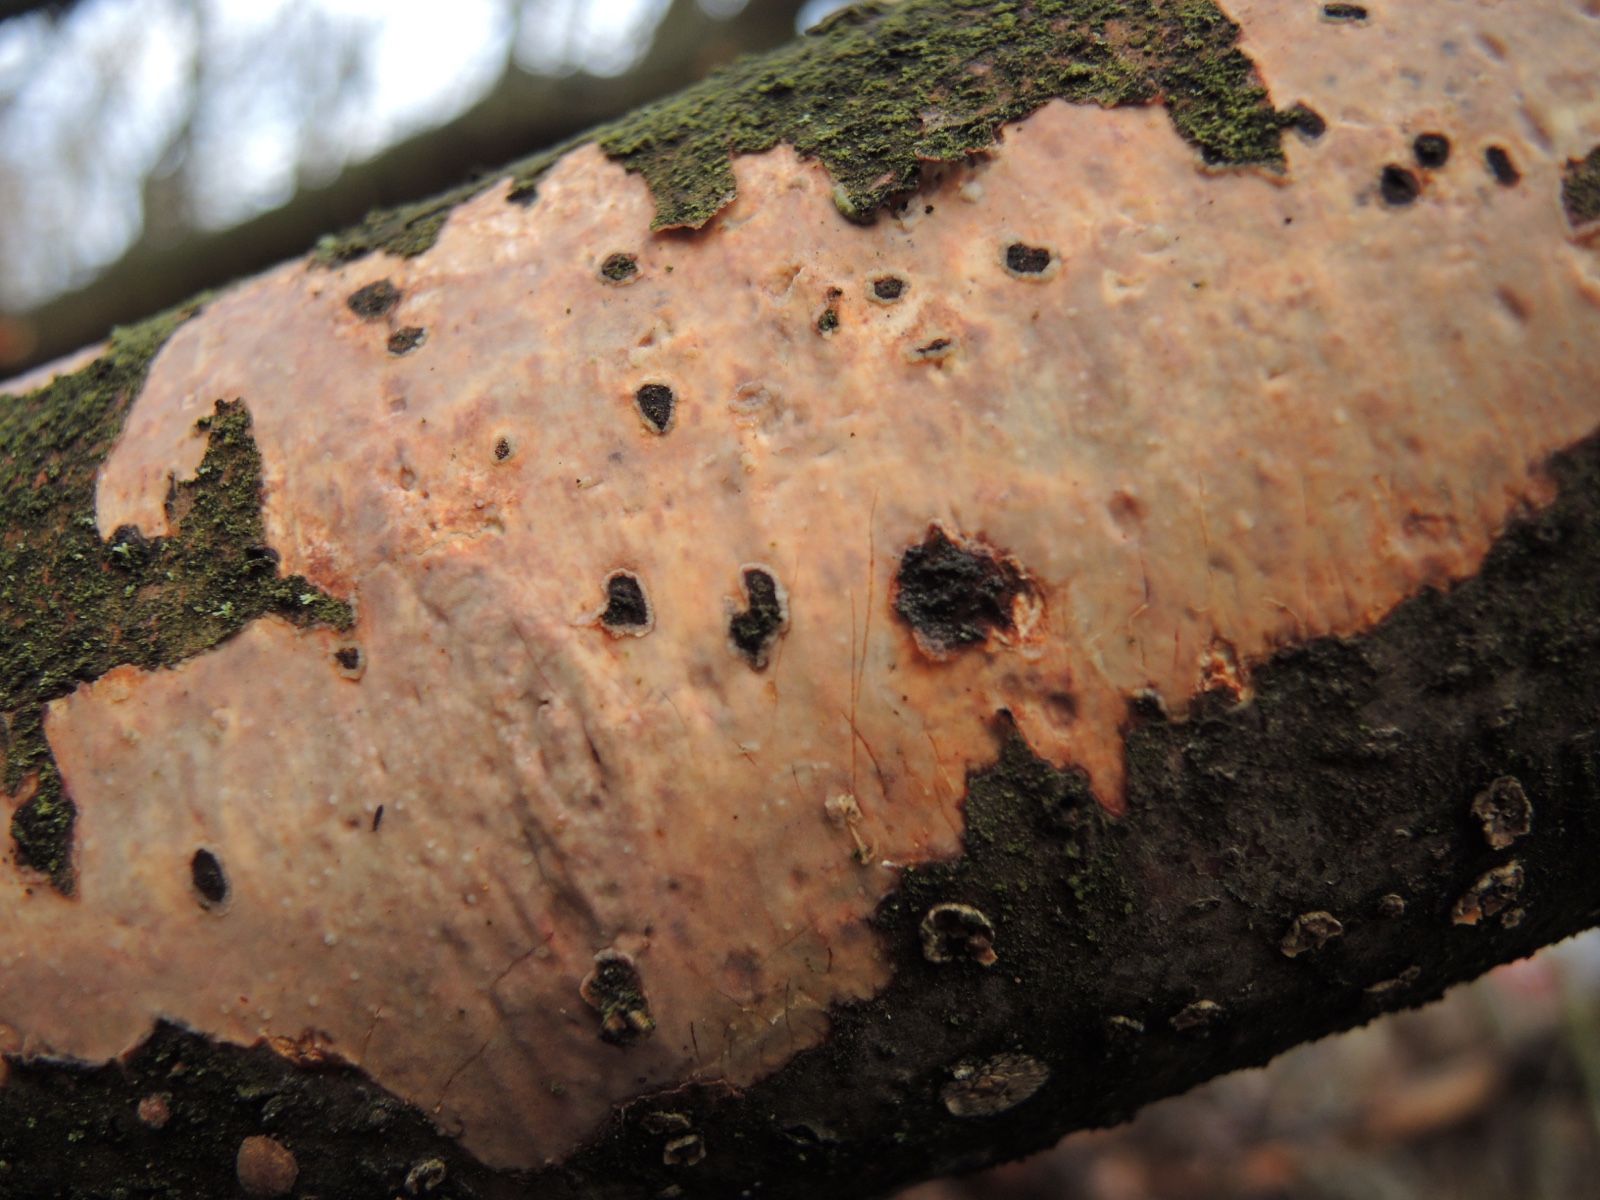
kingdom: Fungi
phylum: Basidiomycota
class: Agaricomycetes
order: Corticiales
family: Vuilleminiaceae
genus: Vuilleminia
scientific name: Vuilleminia comedens
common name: almindelig barksprænger
